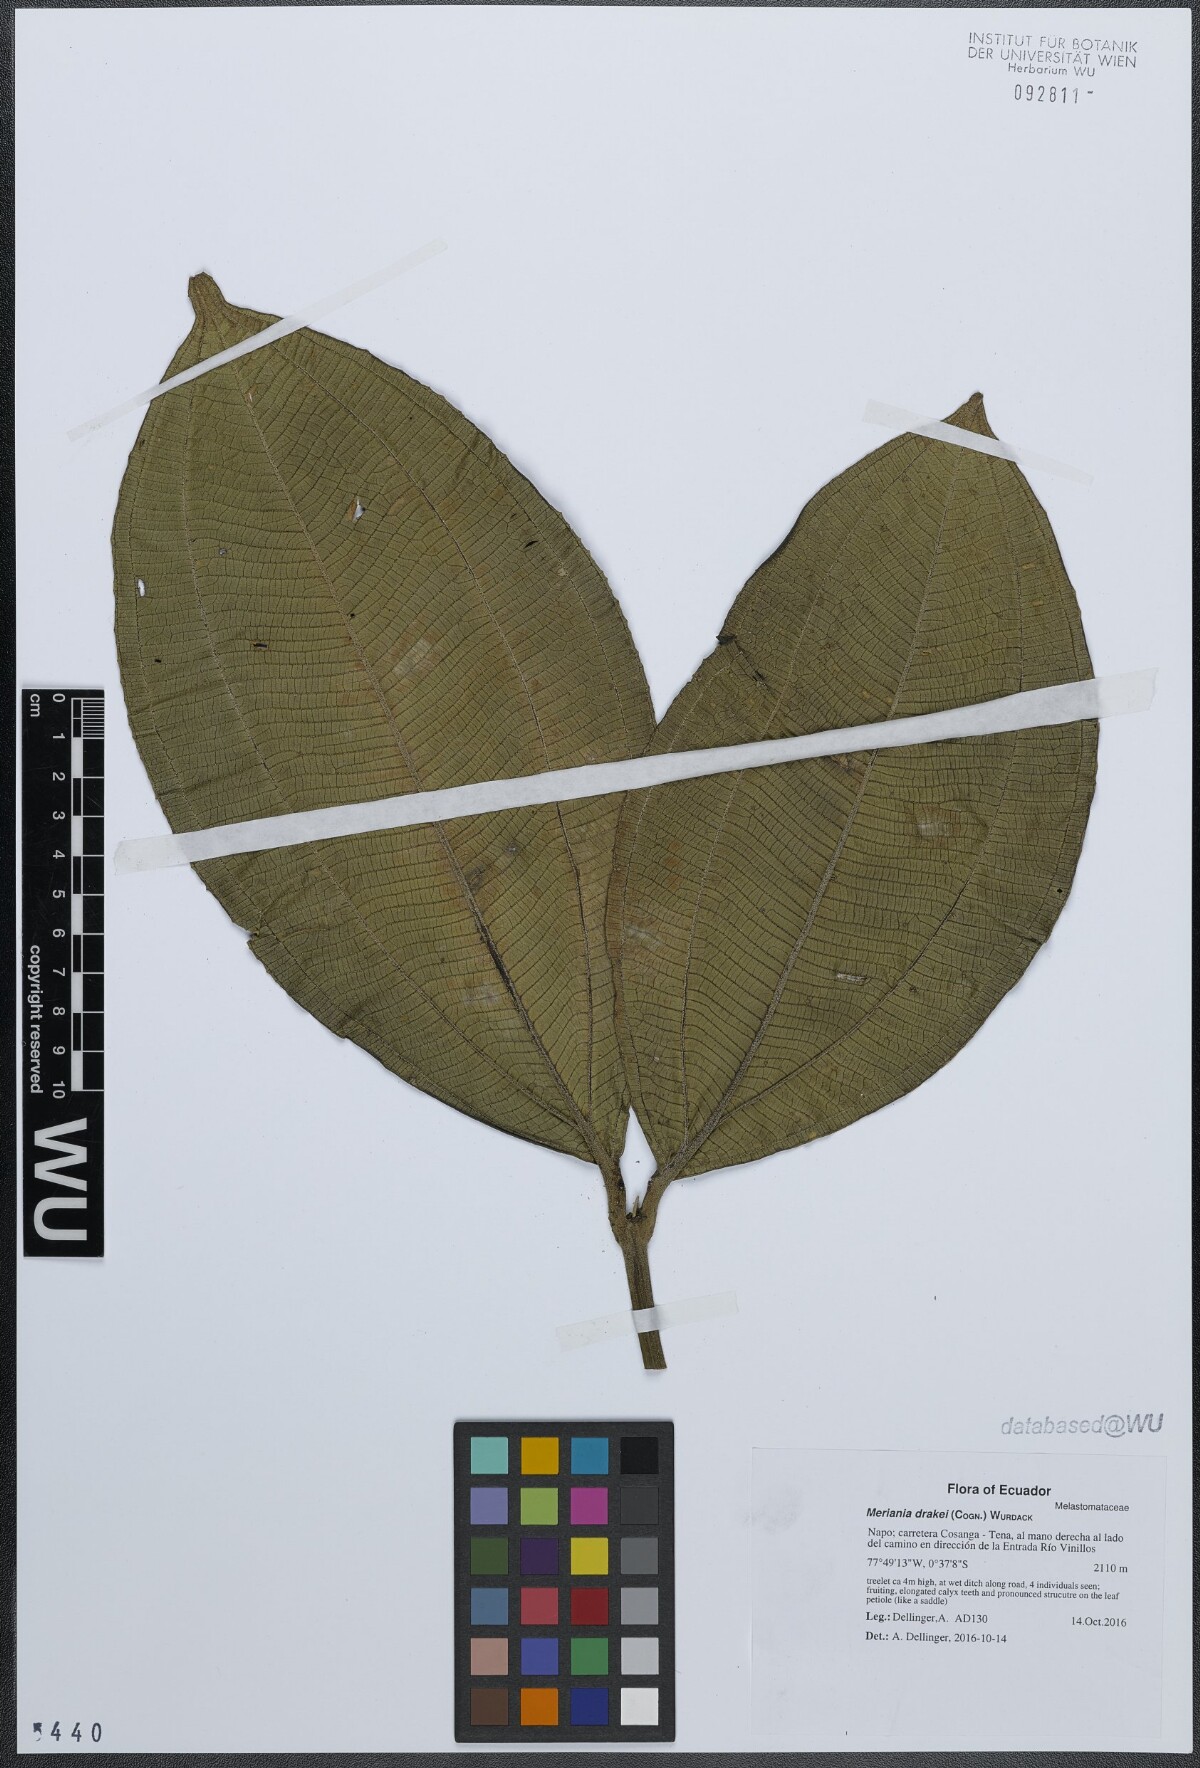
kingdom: Plantae
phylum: Tracheophyta
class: Magnoliopsida
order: Myrtales
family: Melastomataceae
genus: Meriania
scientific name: Meriania drakei
